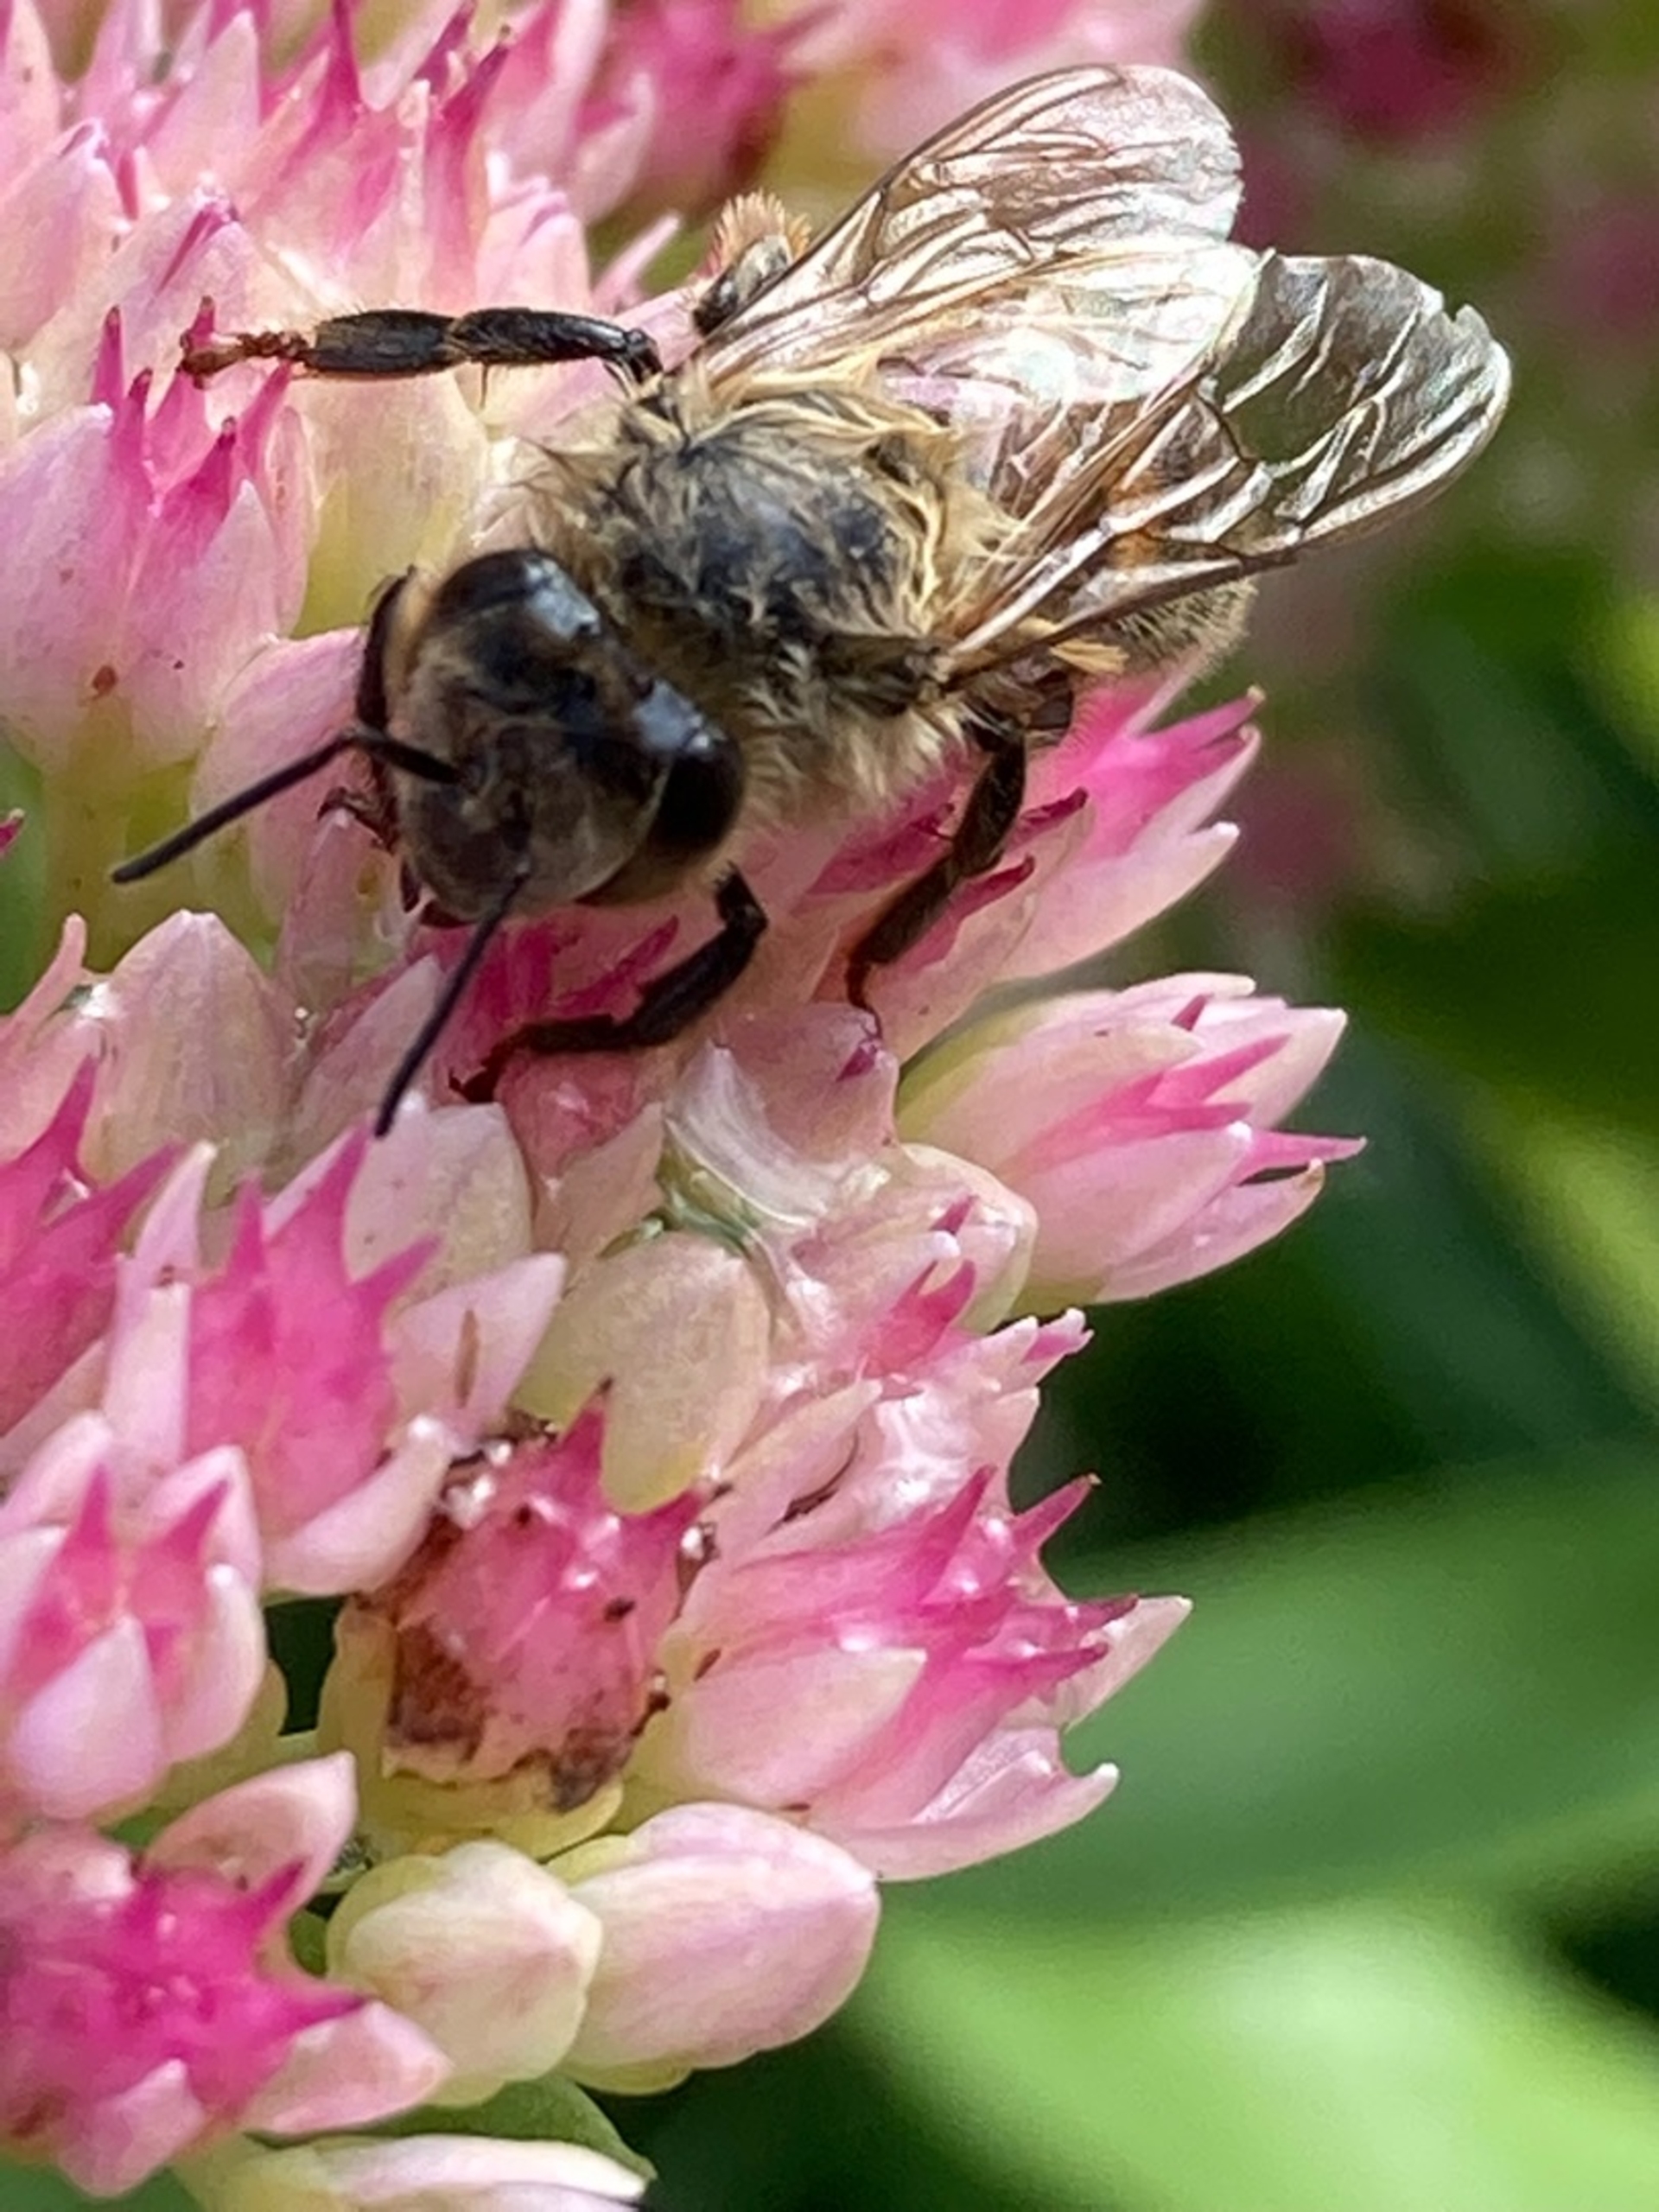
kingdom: Animalia
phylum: Arthropoda
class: Insecta
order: Hymenoptera
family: Apidae
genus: Apis
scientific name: Apis mellifera
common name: Honningbi
